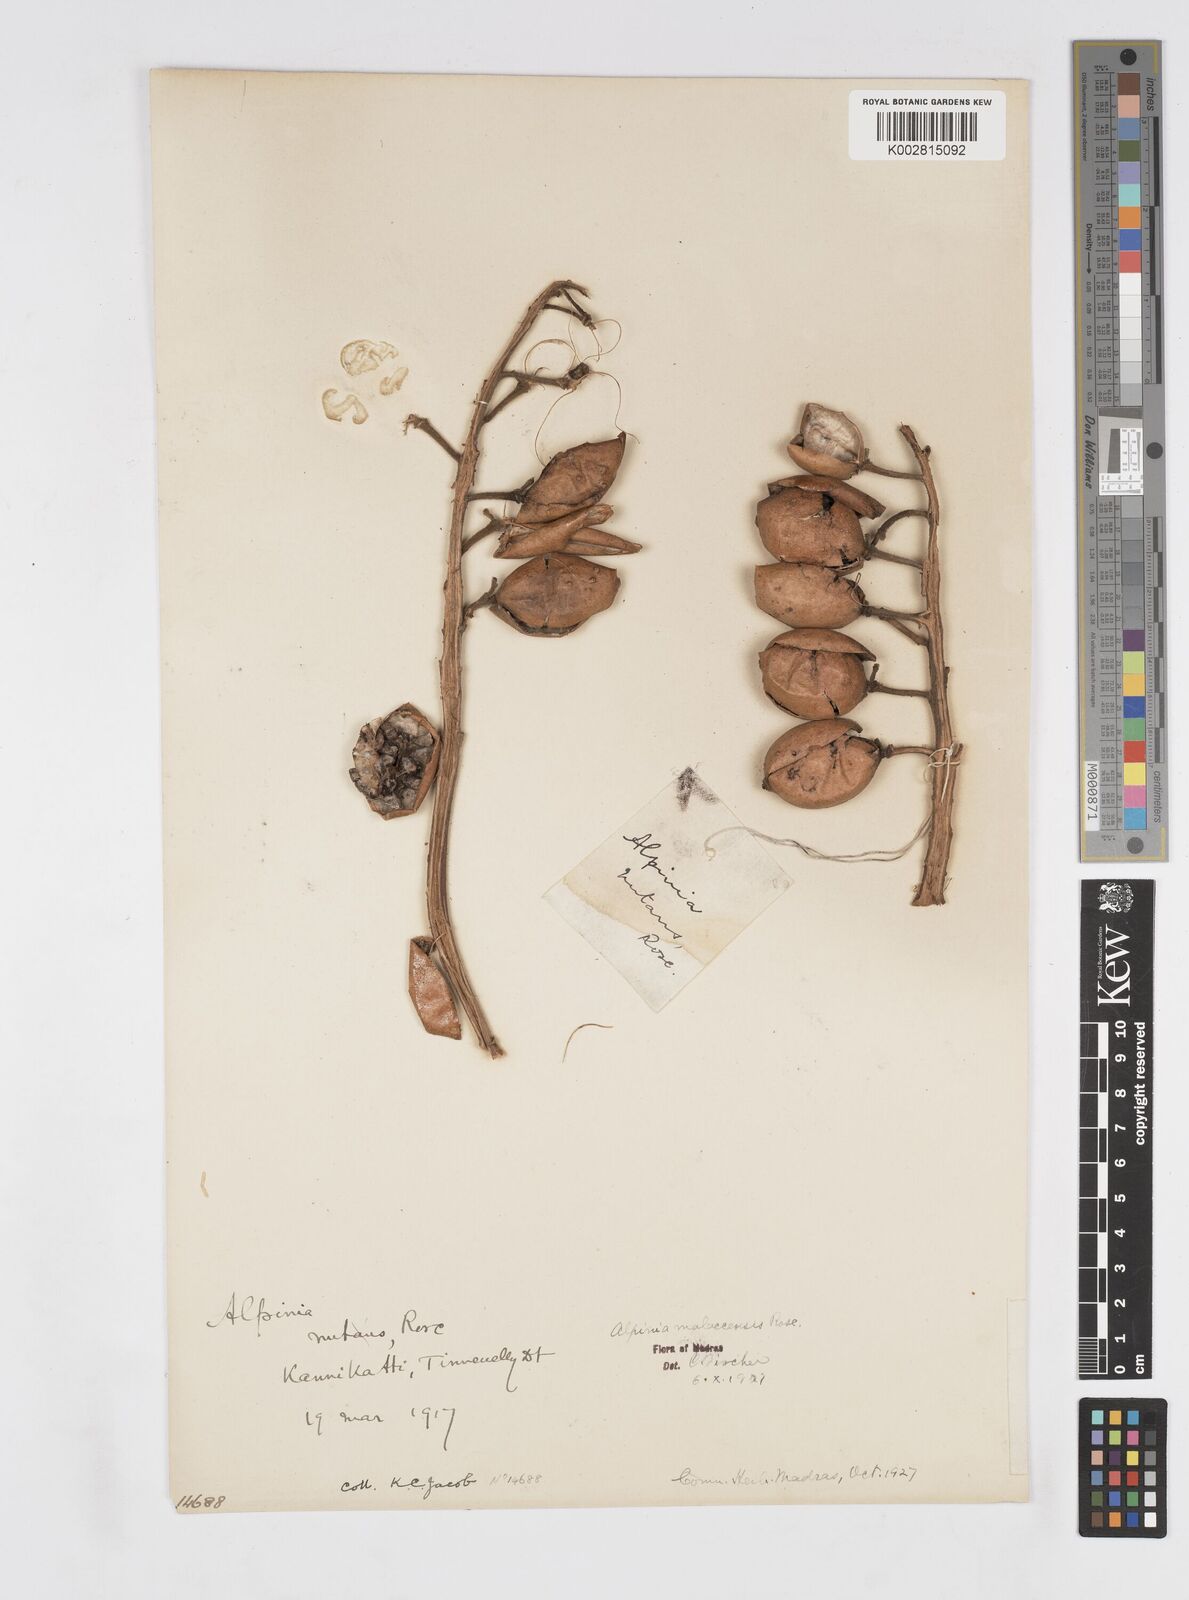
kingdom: Plantae
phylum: Tracheophyta
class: Liliopsida
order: Zingiberales
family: Zingiberaceae
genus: Alpinia
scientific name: Alpinia malaccensis
